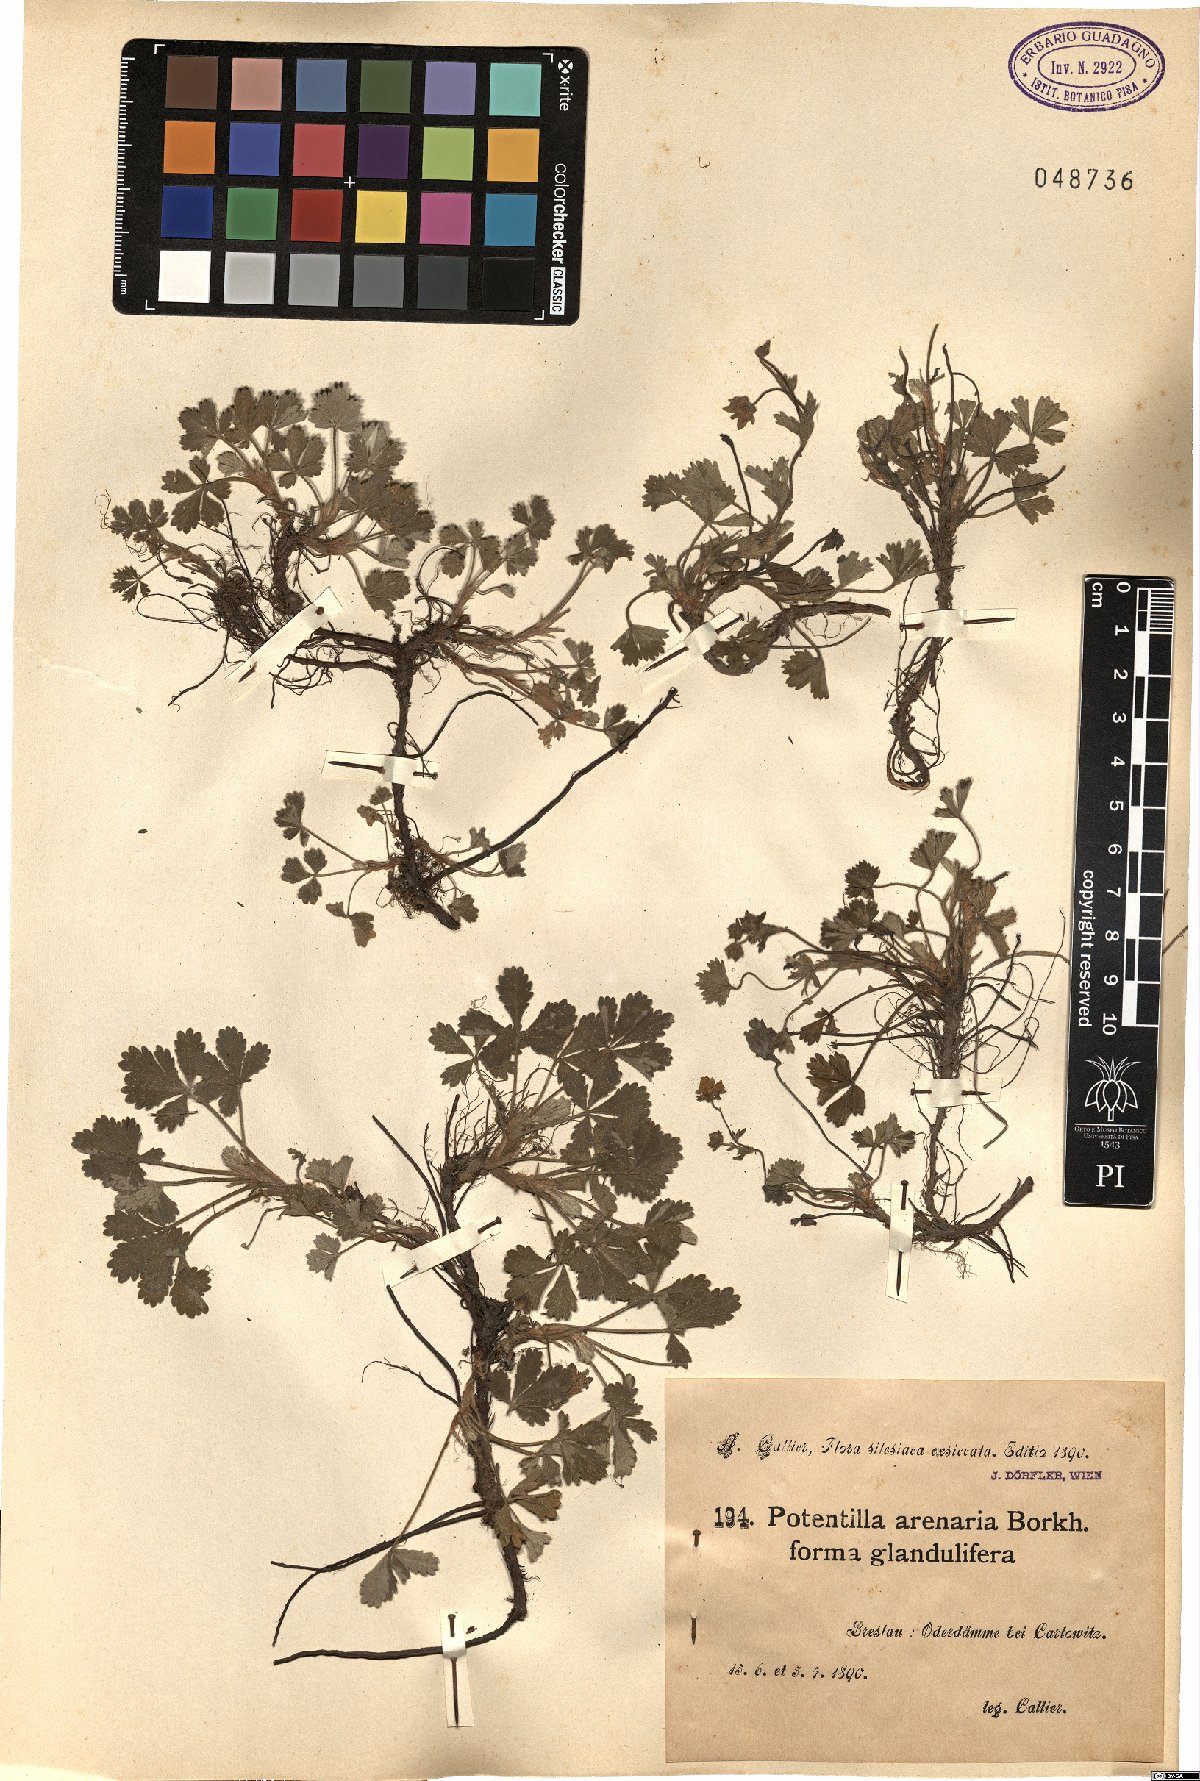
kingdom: Plantae
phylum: Tracheophyta
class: Magnoliopsida
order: Rosales
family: Rosaceae
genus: Potentilla
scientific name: Potentilla cinerea
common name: Ashy cinquefoil
